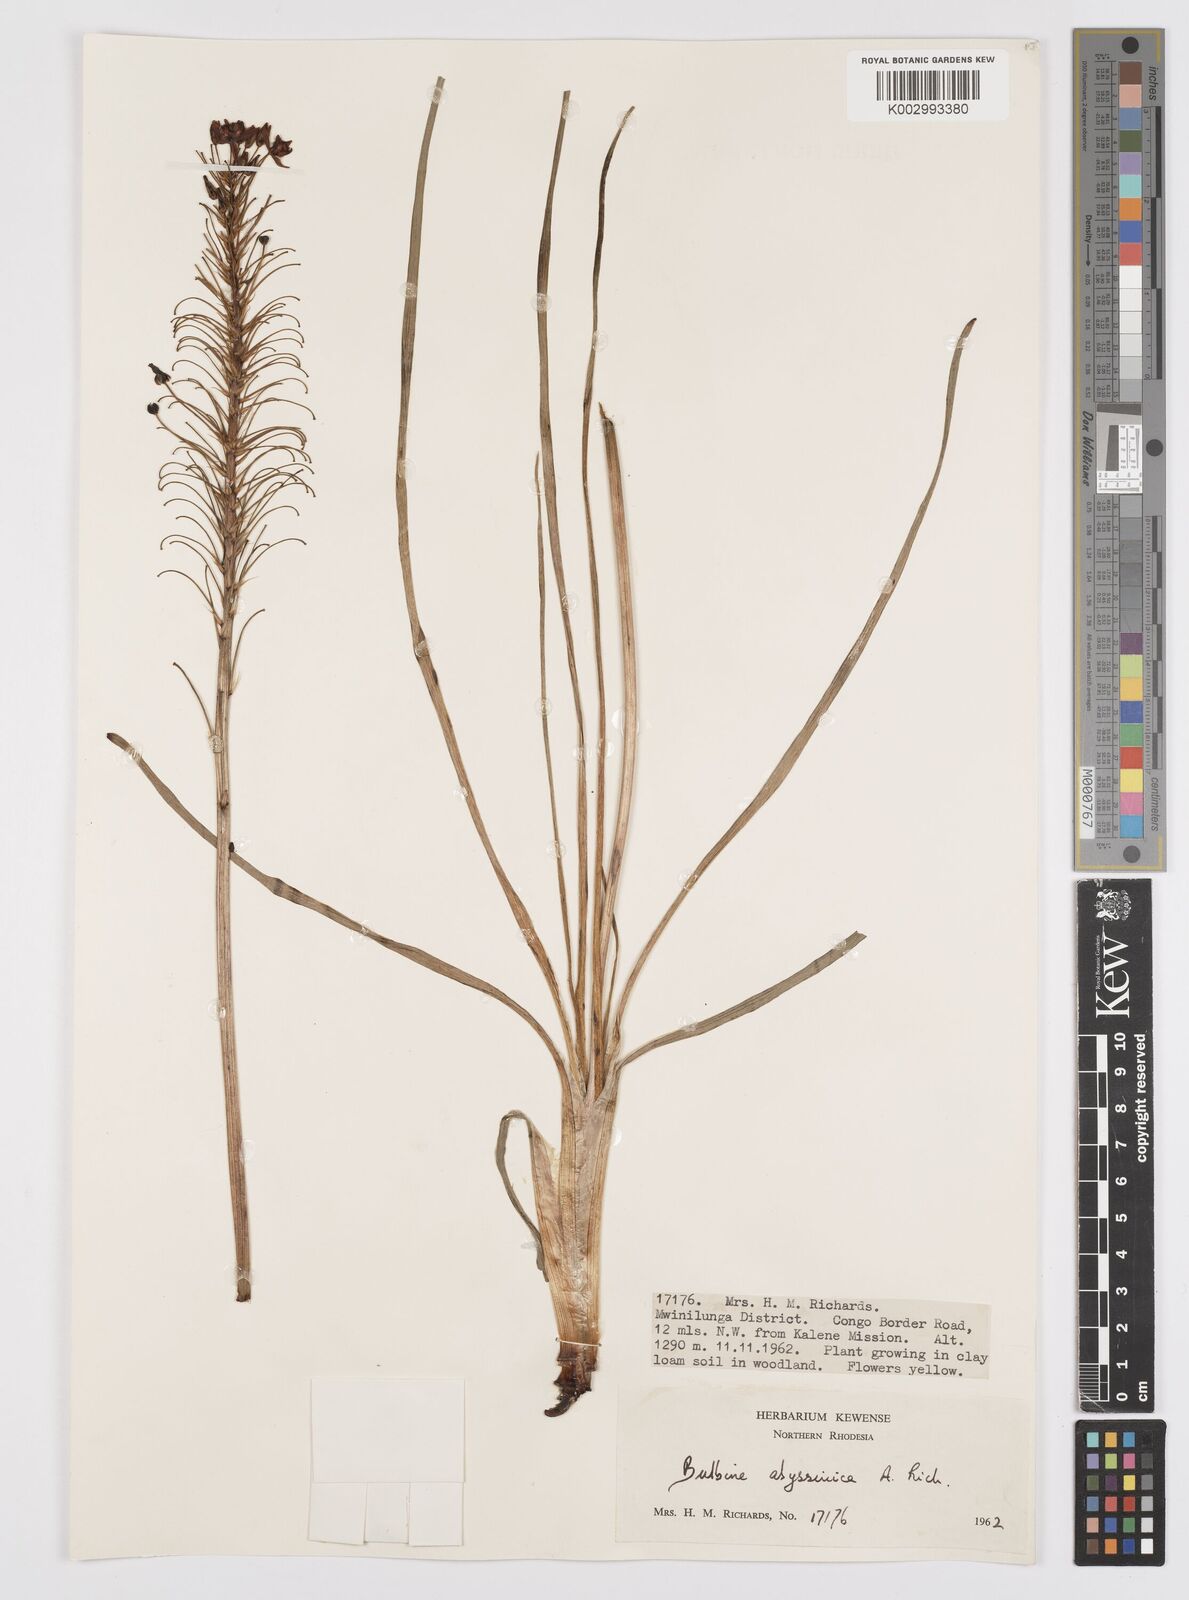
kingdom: Plantae
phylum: Tracheophyta
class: Liliopsida
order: Asparagales
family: Asphodelaceae
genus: Bulbine
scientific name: Bulbine abyssinica
